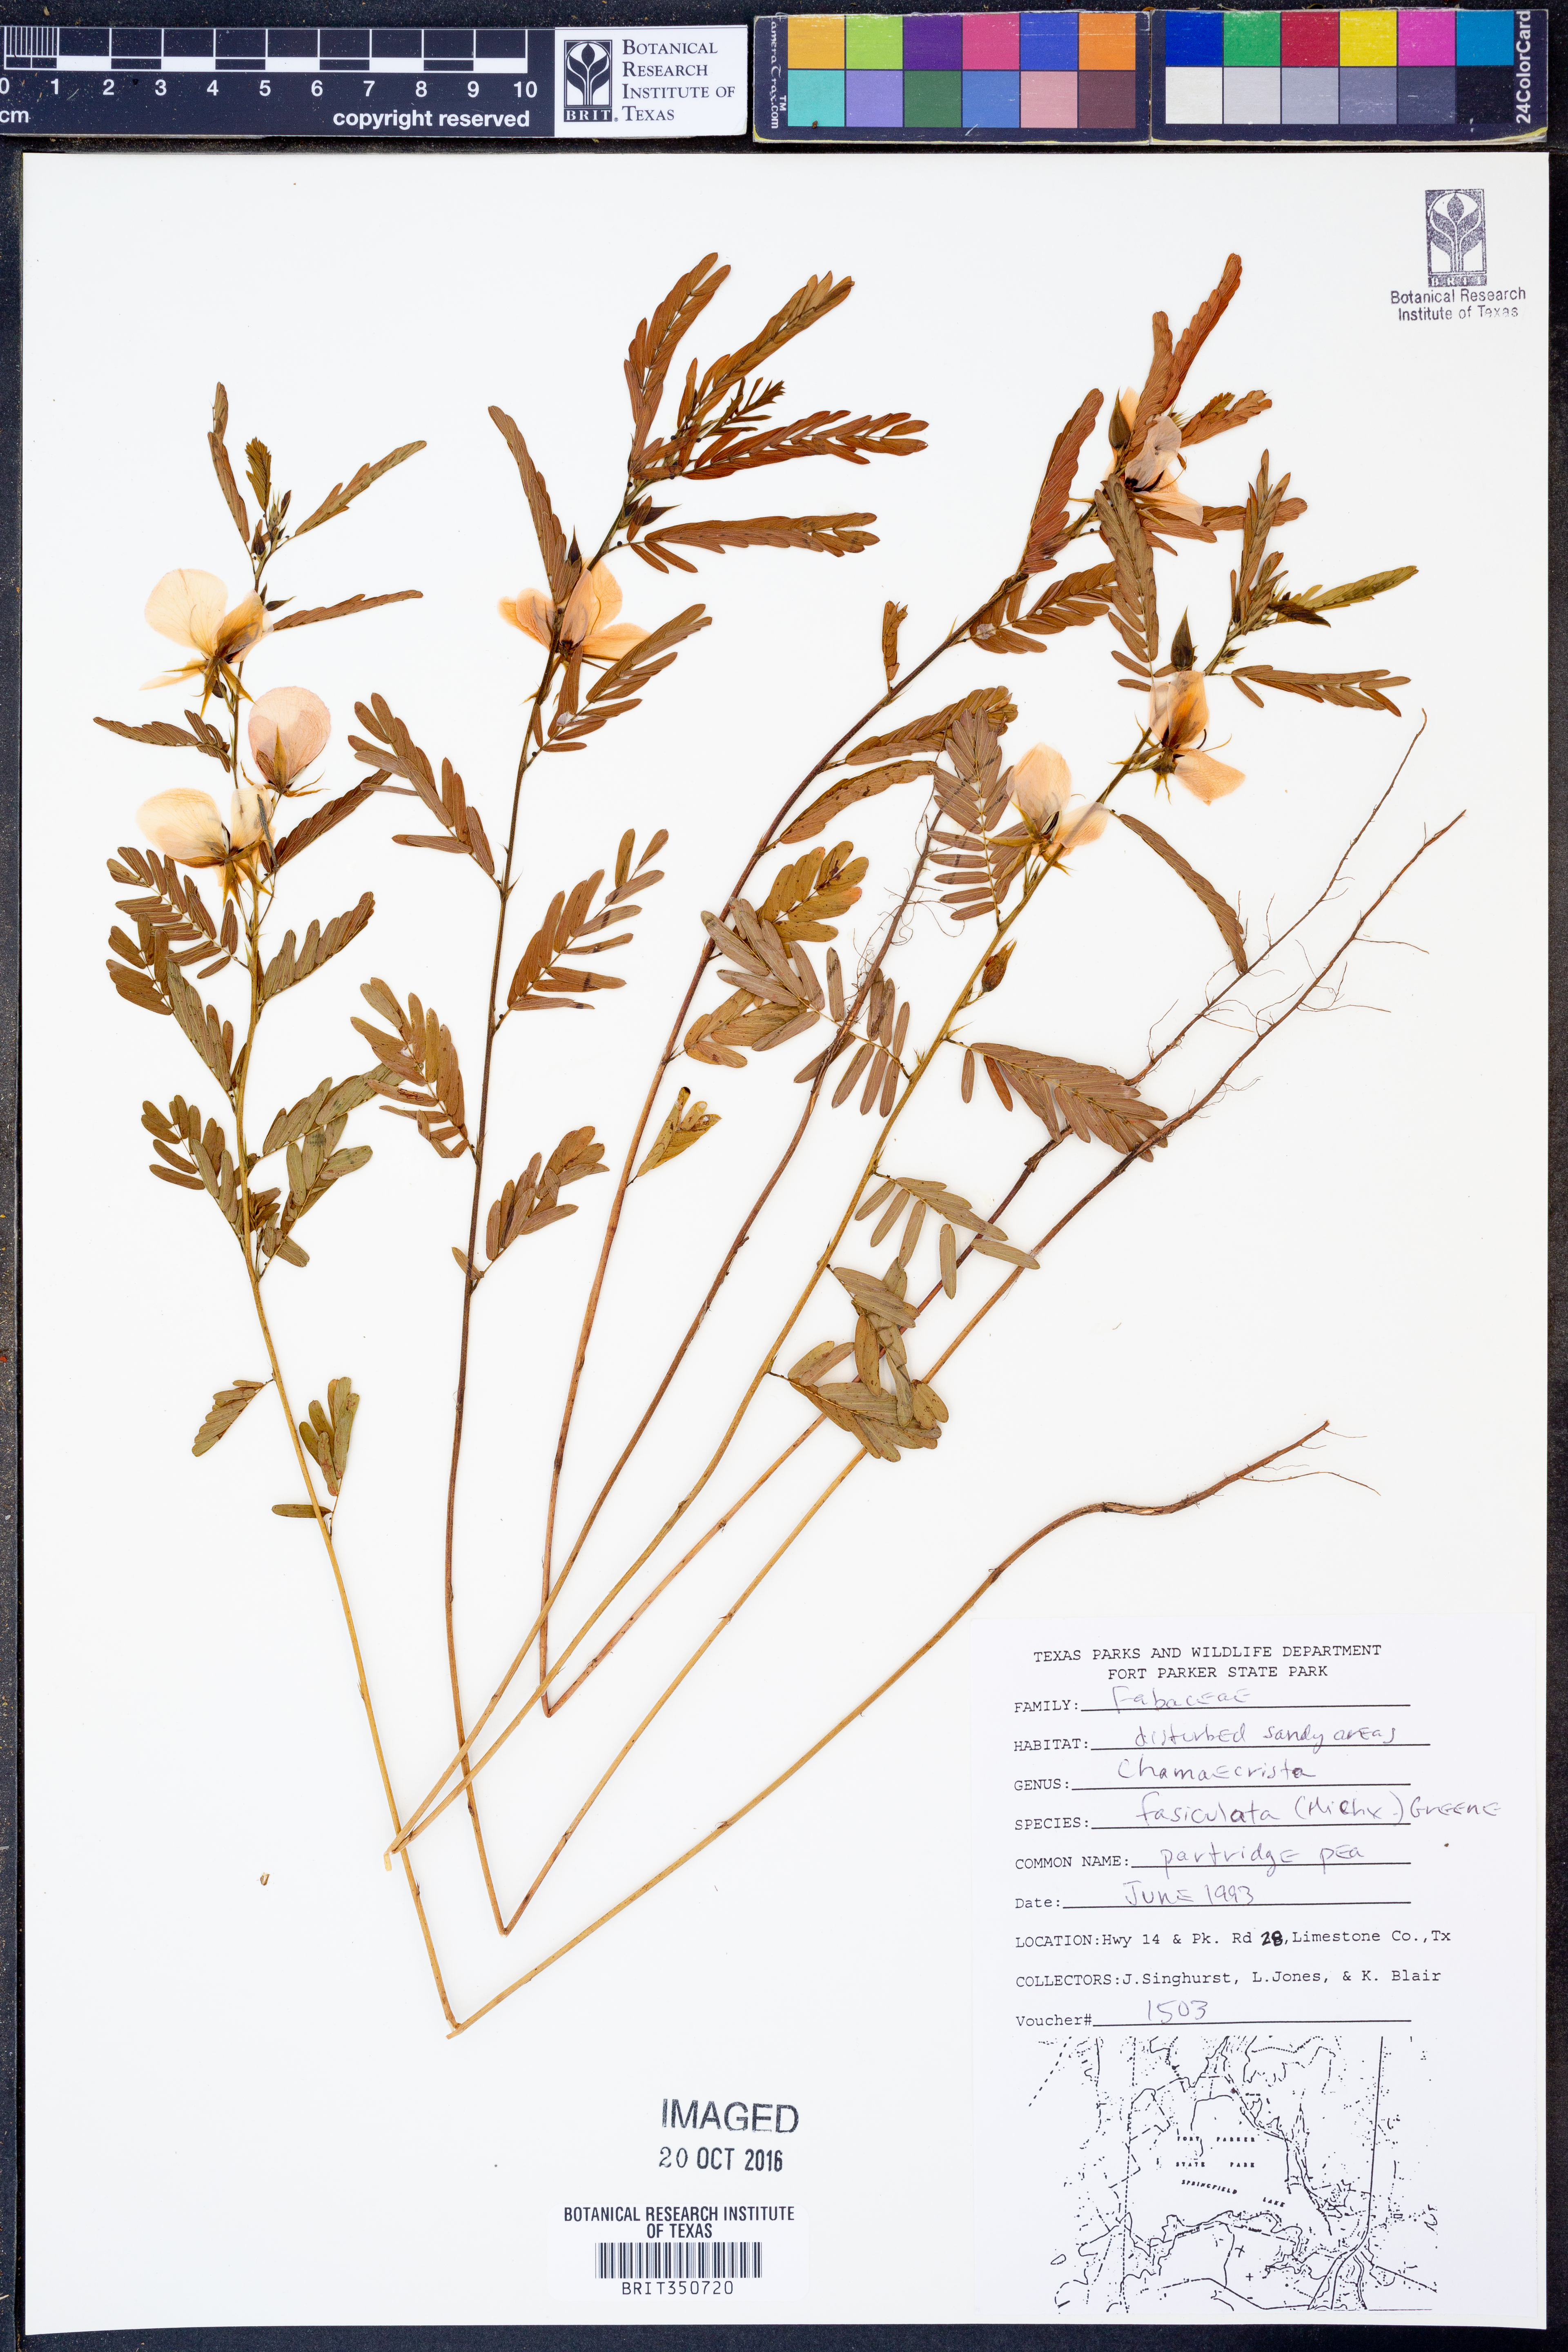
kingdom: Plantae
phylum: Tracheophyta
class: Magnoliopsida
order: Fabales
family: Fabaceae
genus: Chamaecrista
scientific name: Chamaecrista fasciculata
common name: Golden cassia
